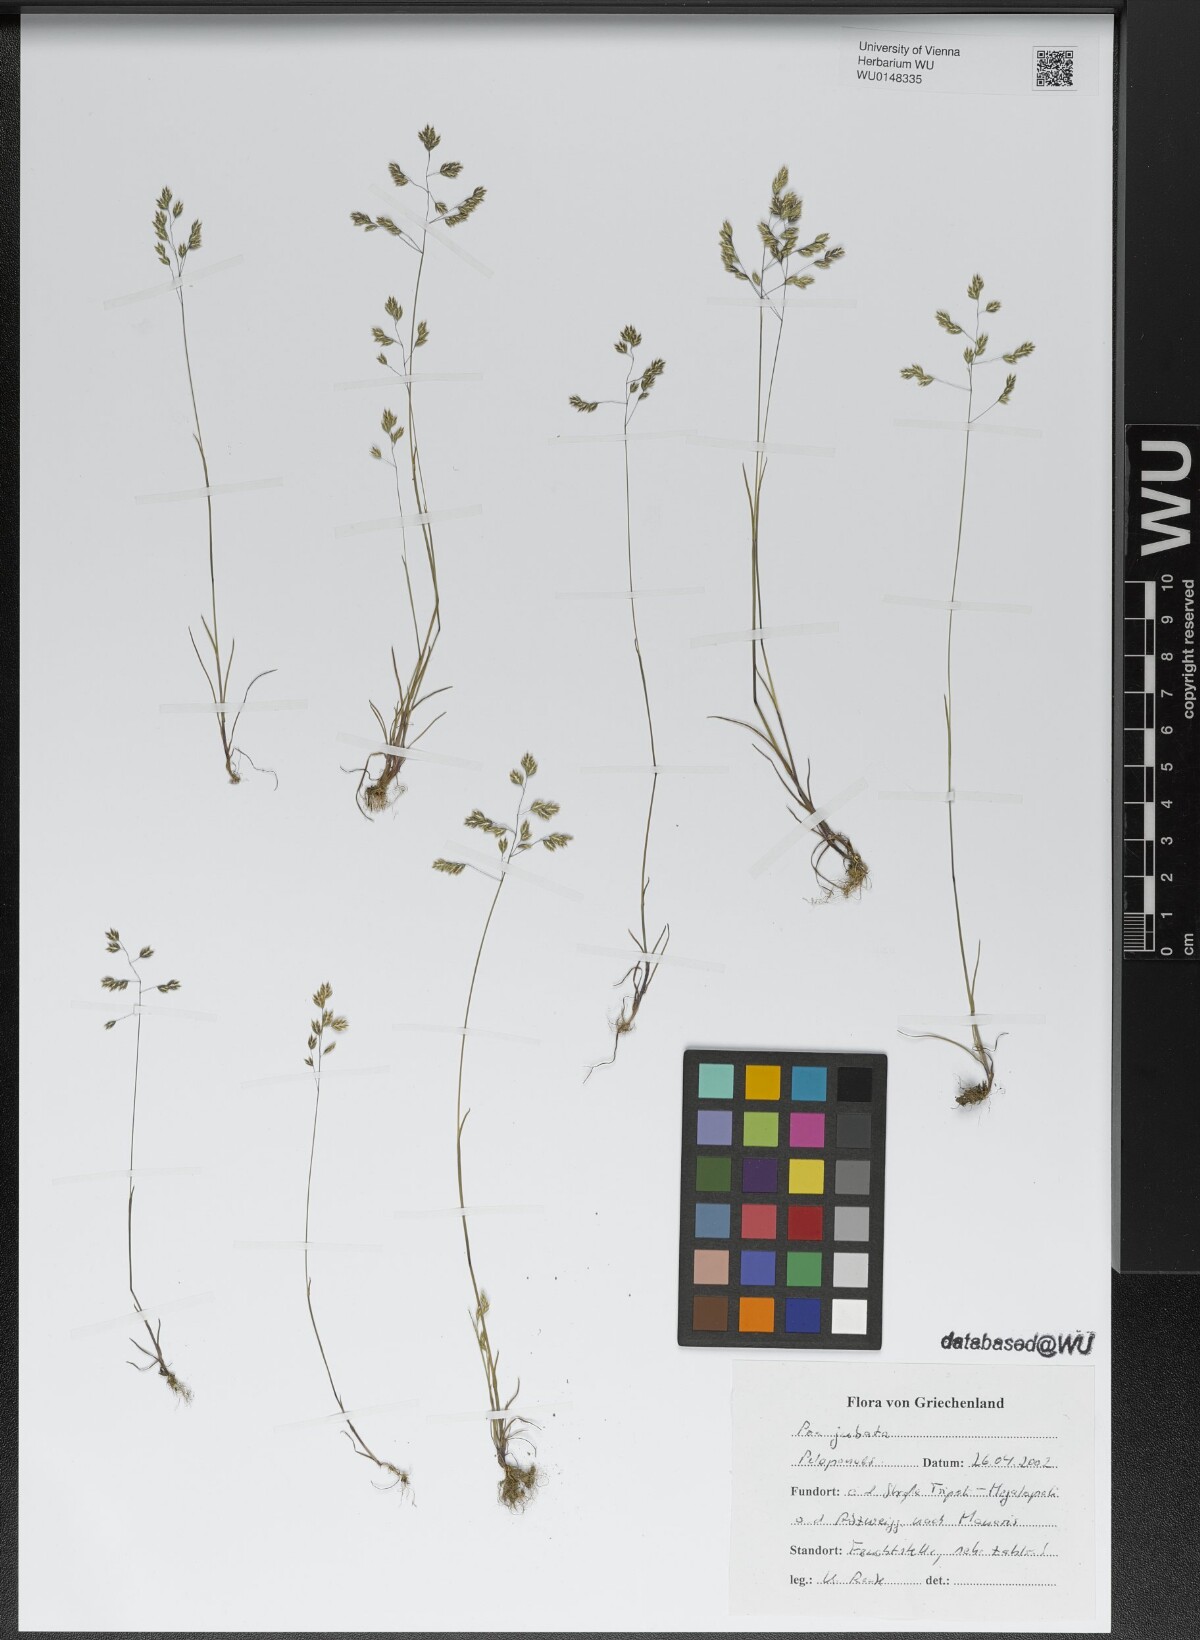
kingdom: Plantae
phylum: Tracheophyta
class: Liliopsida
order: Poales
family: Poaceae
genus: Poa
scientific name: Poa jubata
